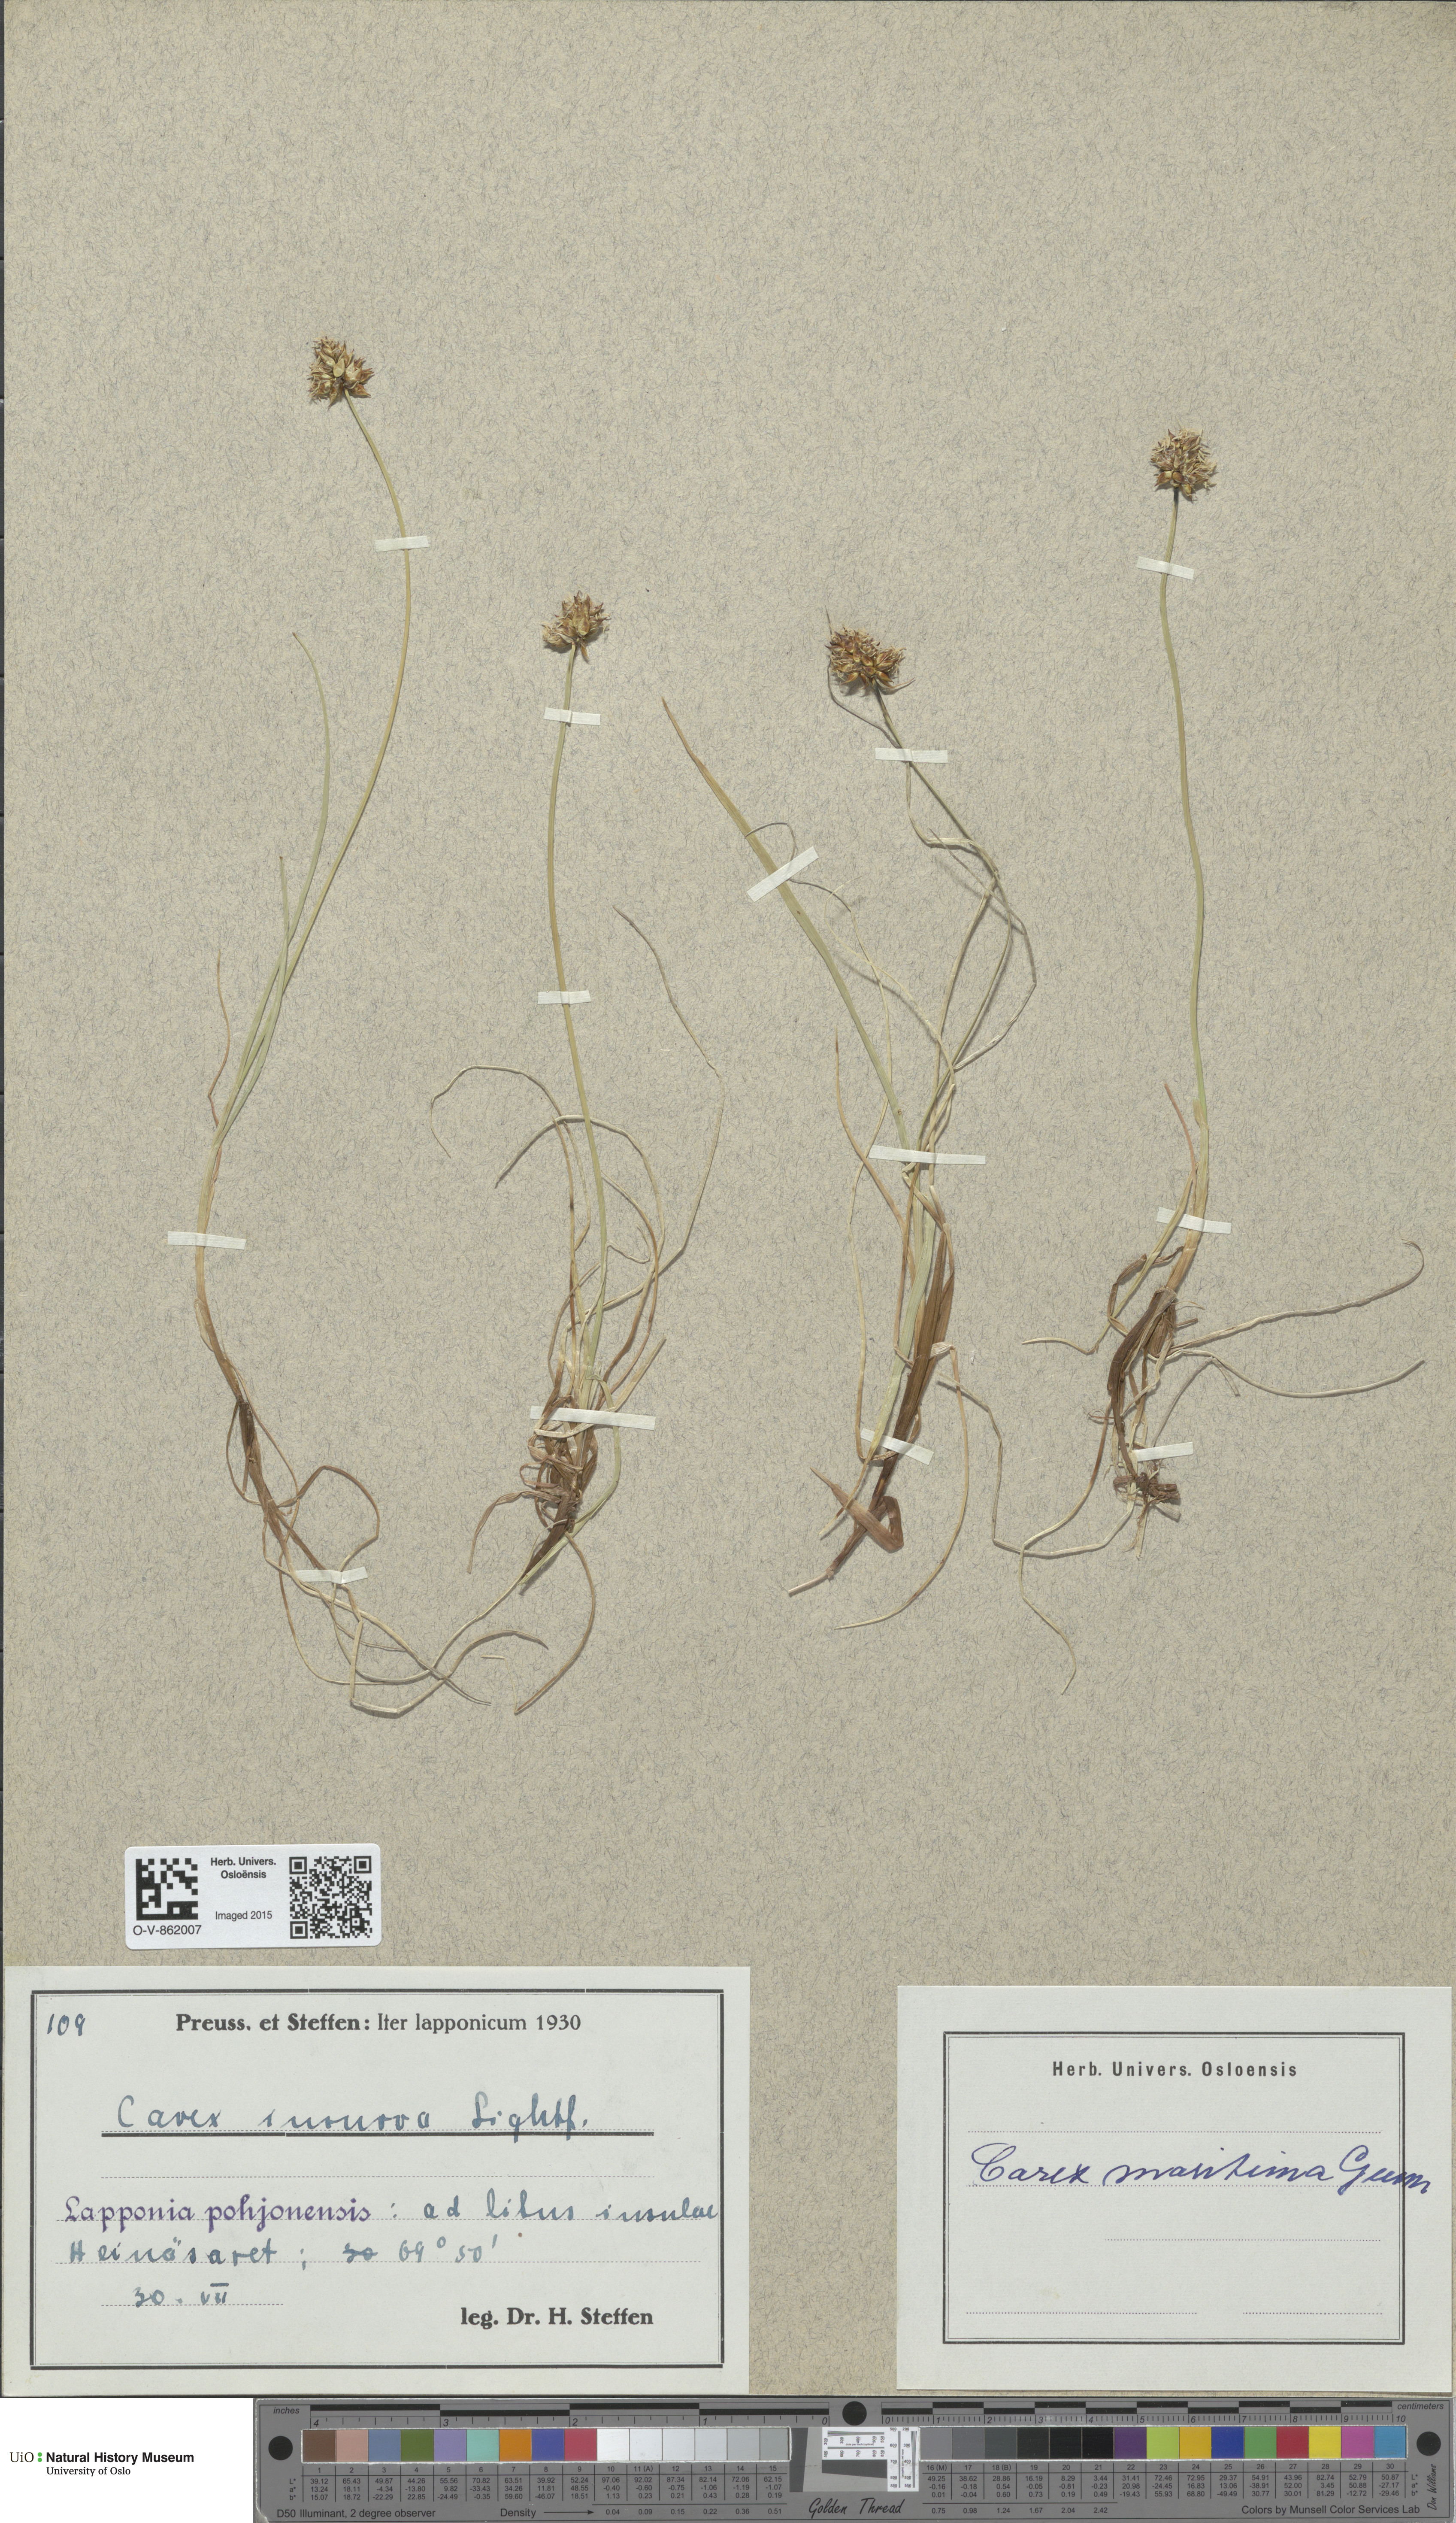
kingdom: Plantae
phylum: Tracheophyta
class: Liliopsida
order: Poales
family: Cyperaceae
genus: Carex
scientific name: Carex maritima
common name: Curved sedge
